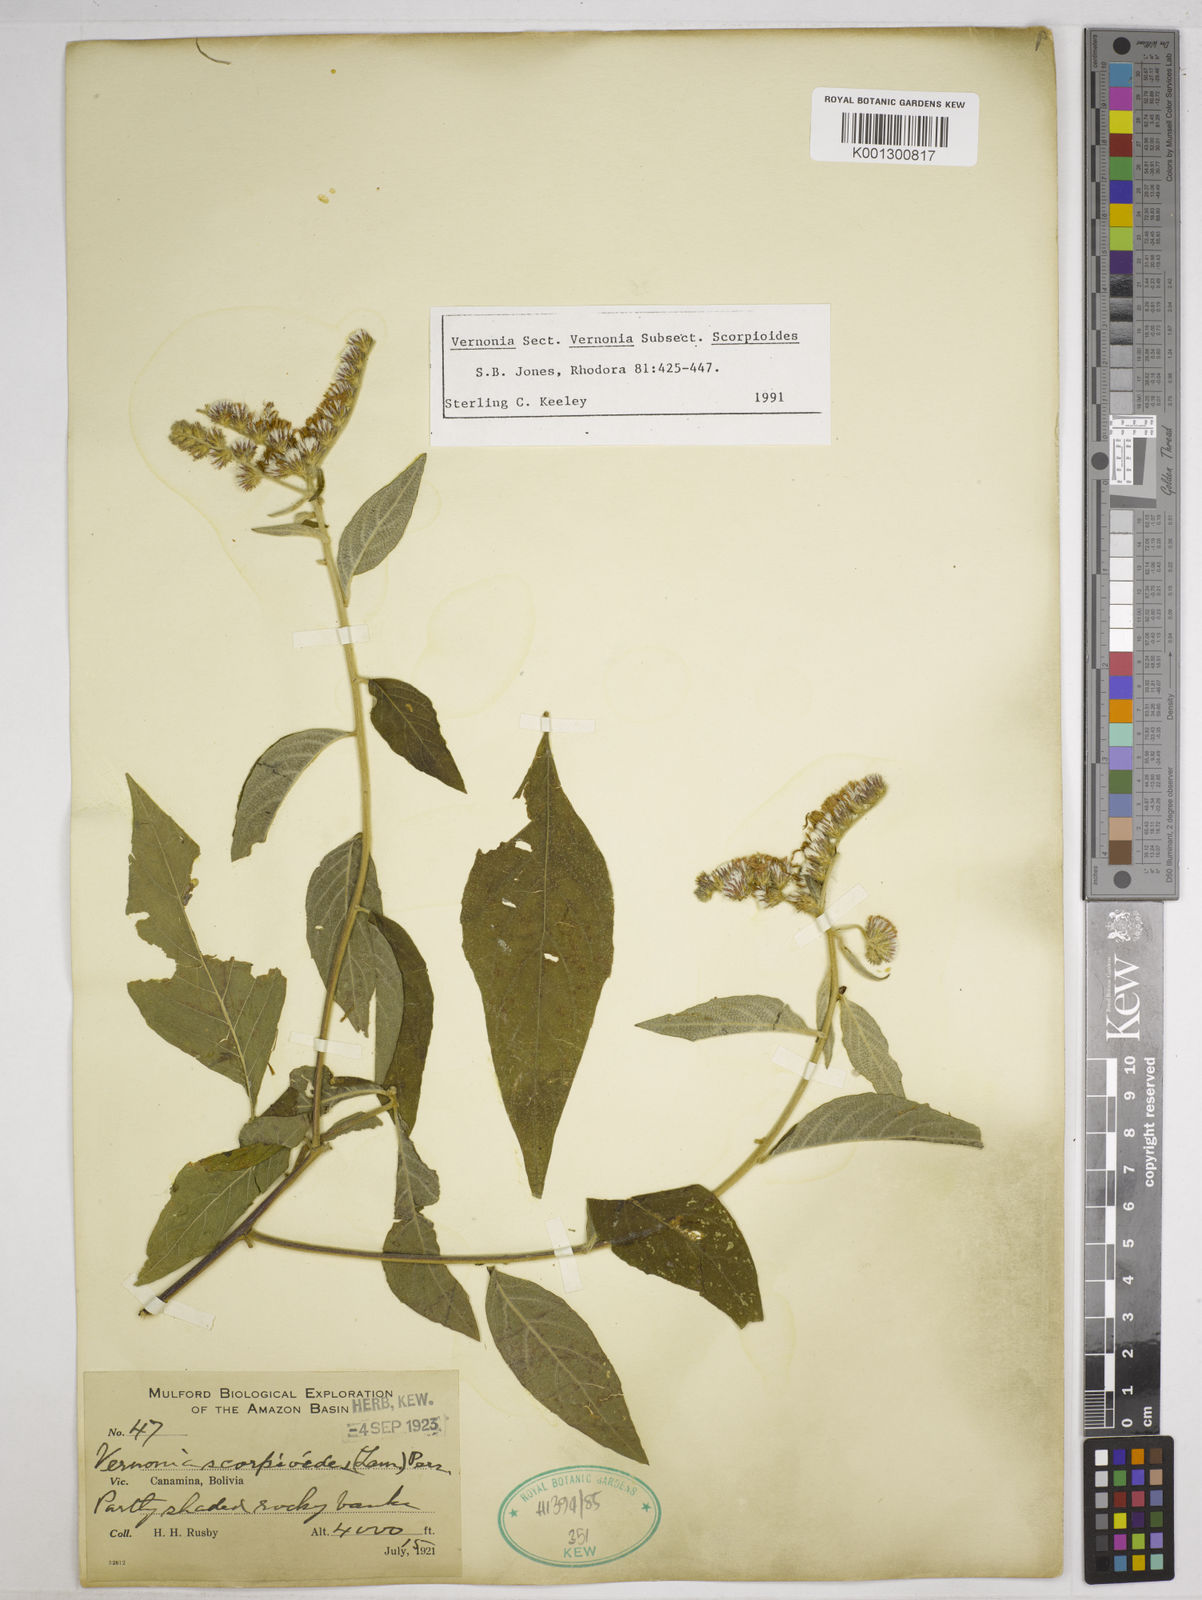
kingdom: Plantae
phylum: Tracheophyta
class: Magnoliopsida
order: Asterales
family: Asteraceae
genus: Cyrtocymura
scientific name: Cyrtocymura scorpioides
